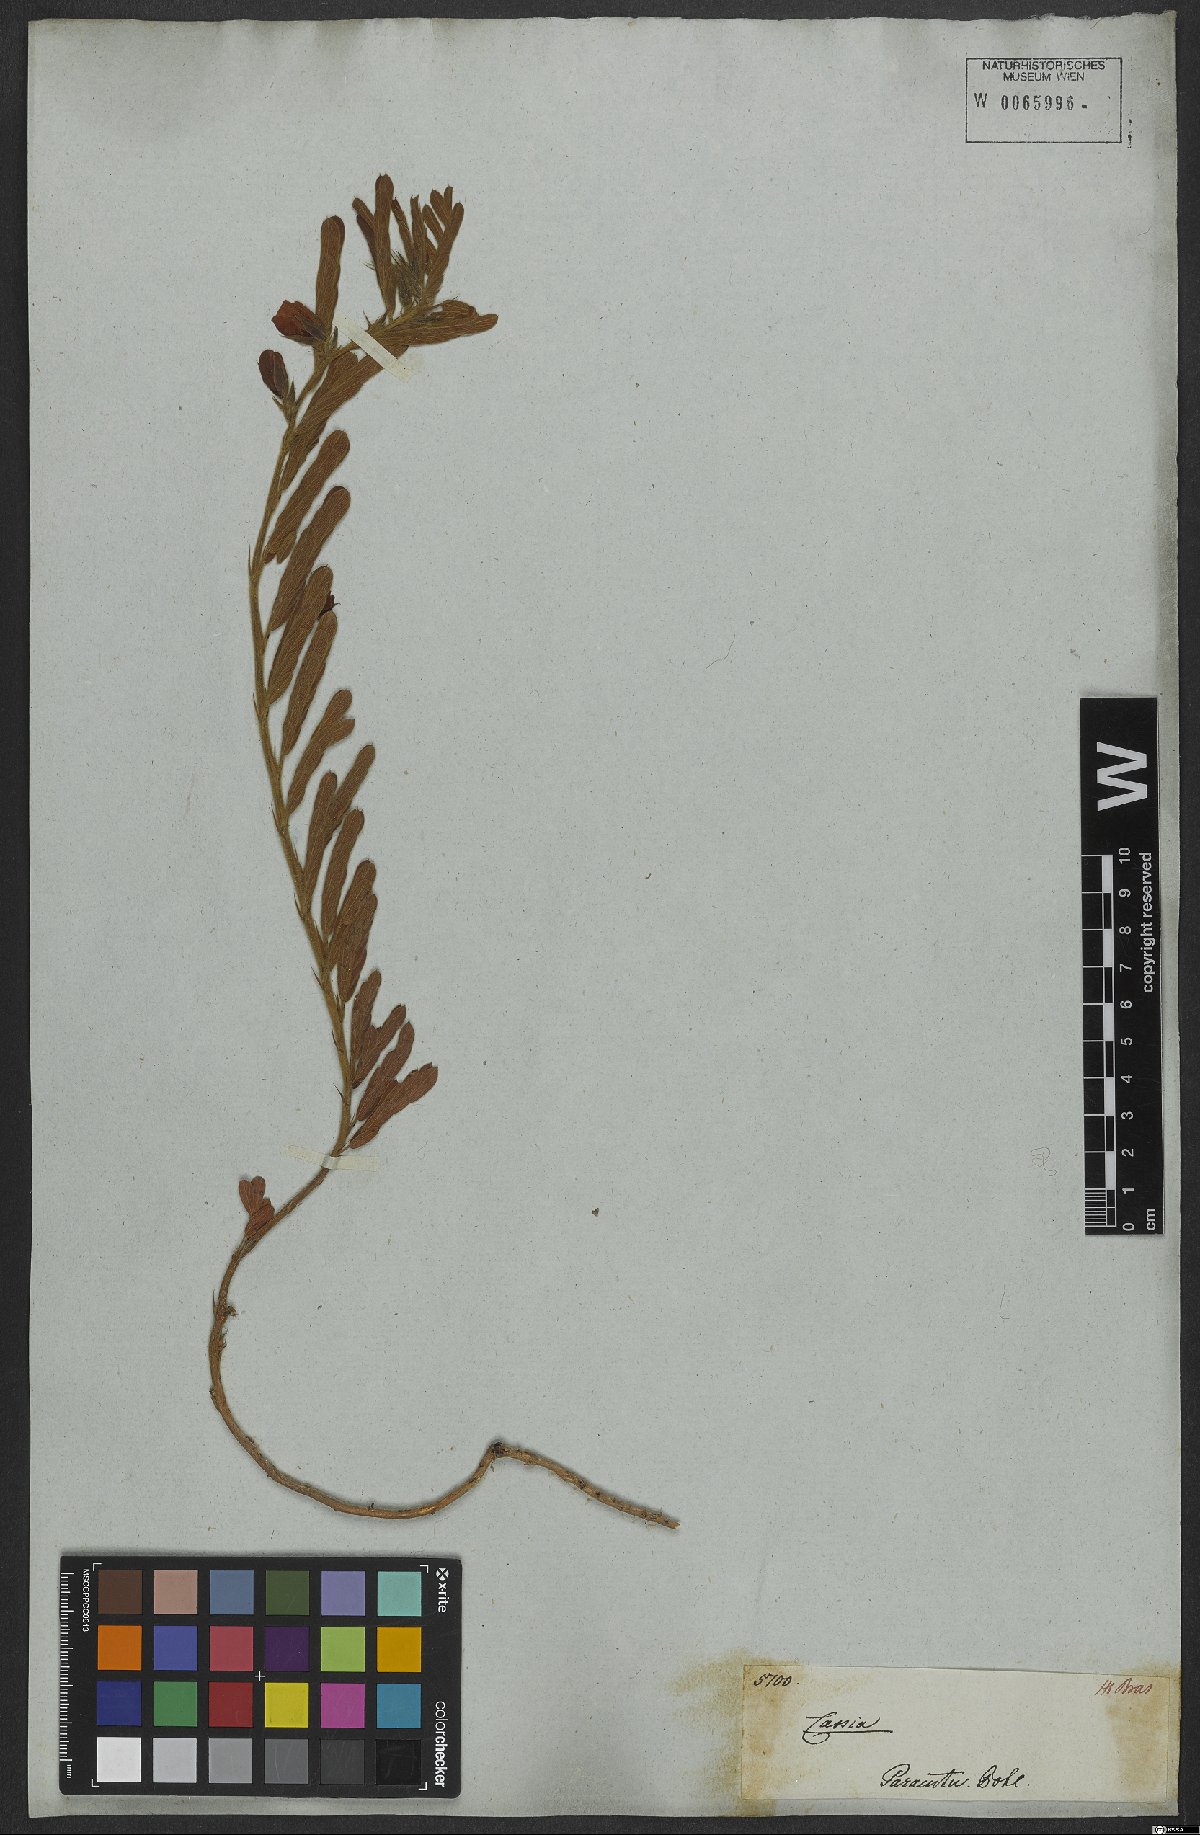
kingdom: Plantae
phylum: Tracheophyta
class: Magnoliopsida
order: Fabales
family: Fabaceae
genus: Chamaecrista
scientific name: Chamaecrista repens
